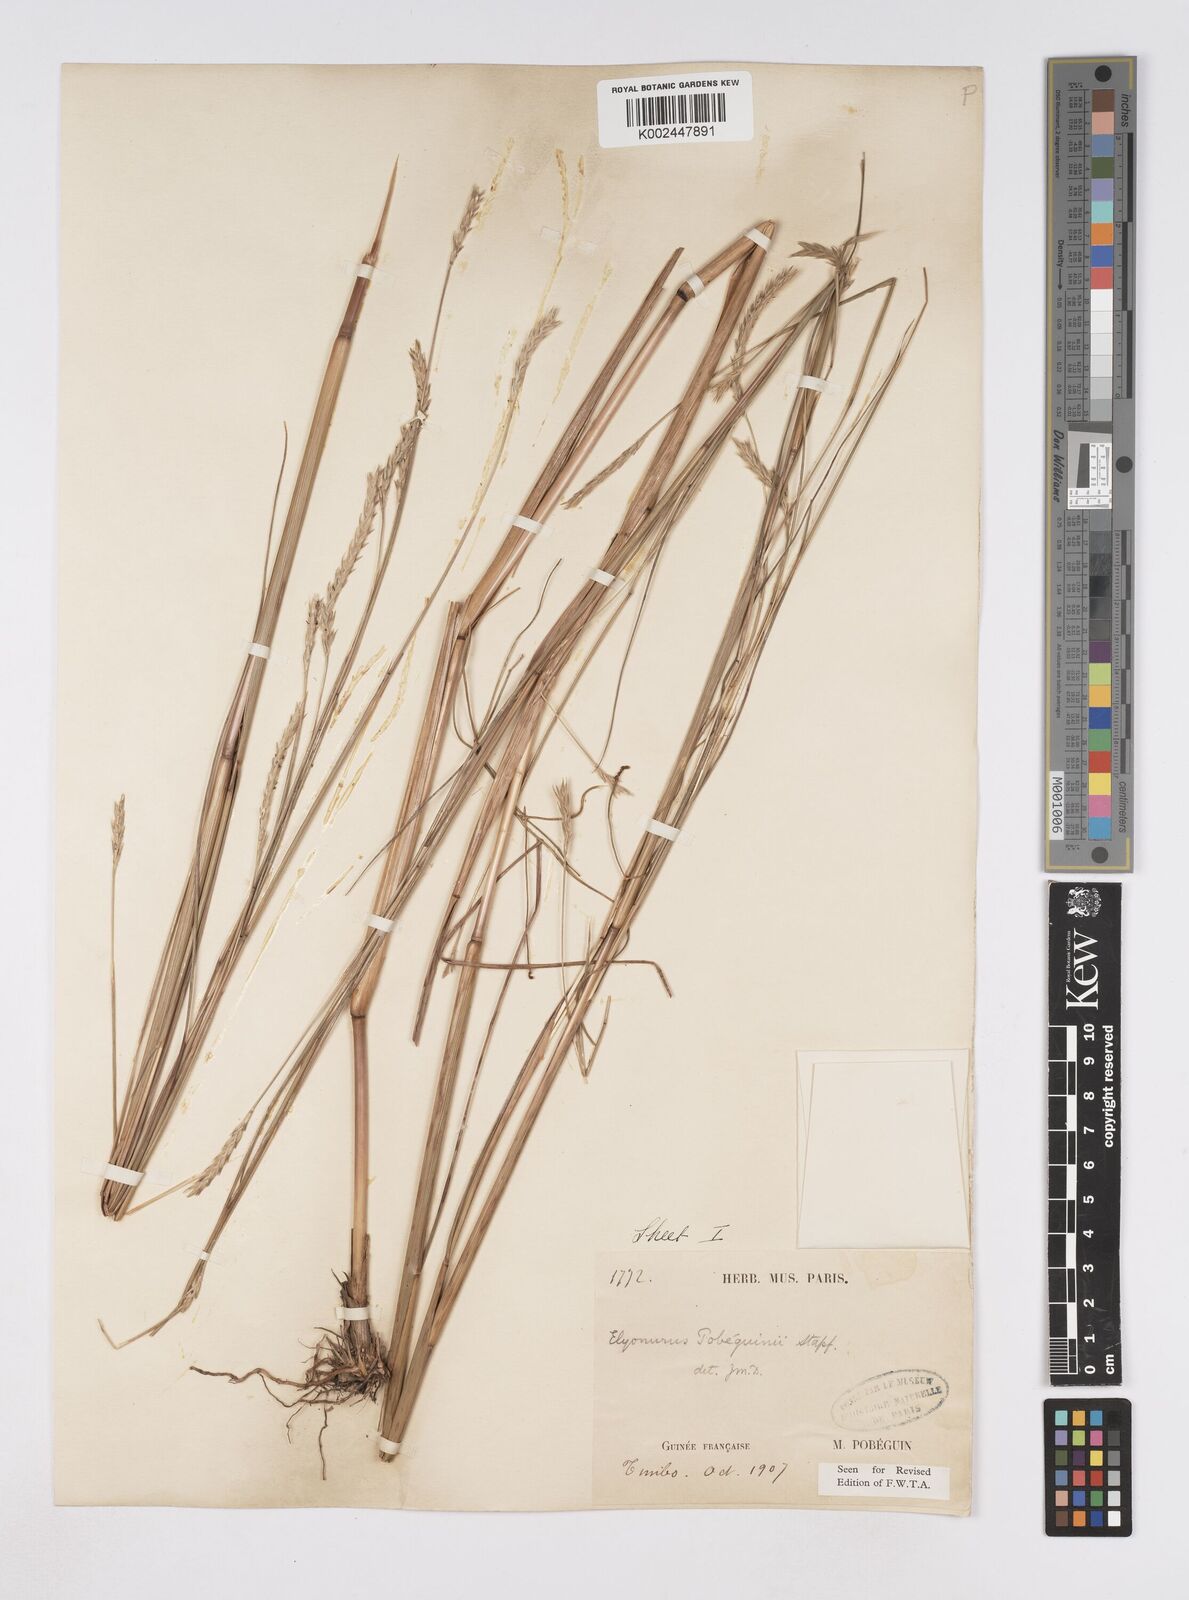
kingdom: Plantae
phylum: Tracheophyta
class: Liliopsida
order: Poales
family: Poaceae
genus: Elionurus
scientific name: Elionurus ciliaris
